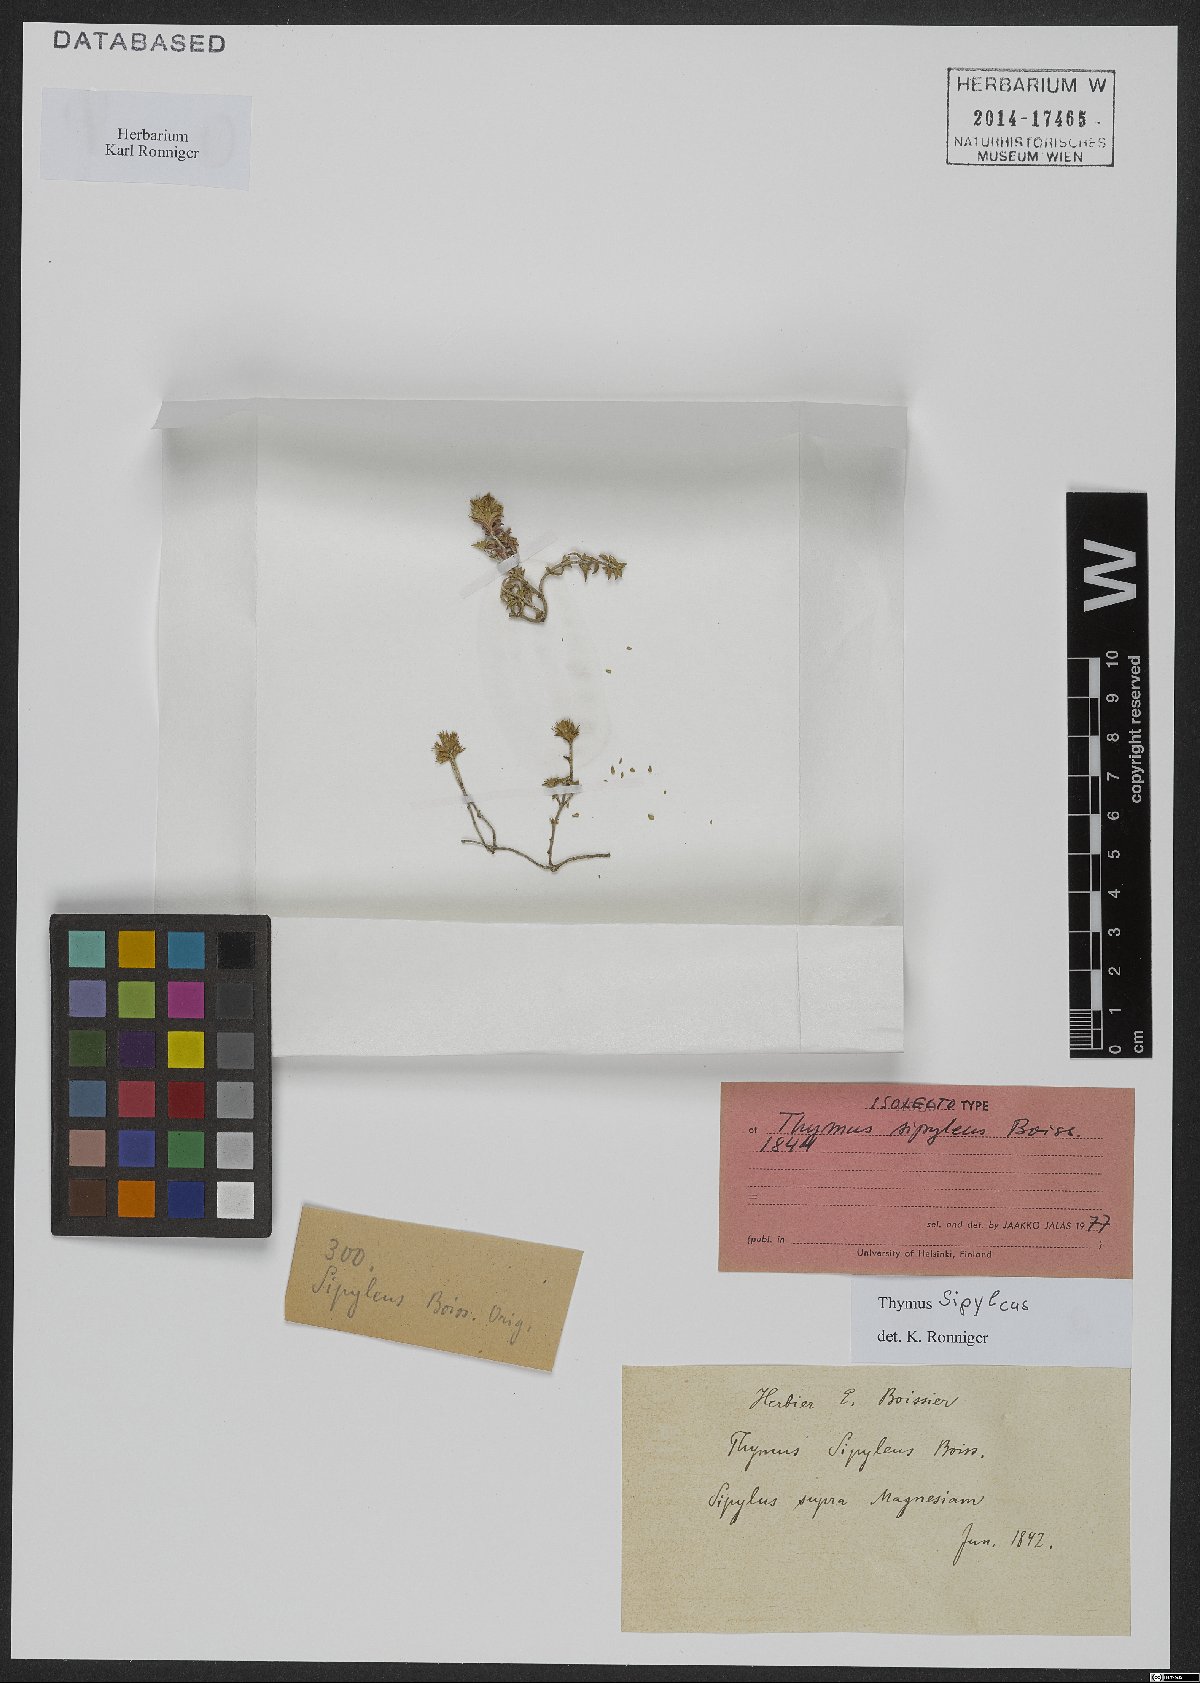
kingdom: Plantae
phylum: Tracheophyta
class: Magnoliopsida
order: Lamiales
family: Lamiaceae
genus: Thymus
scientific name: Thymus sipyleus
